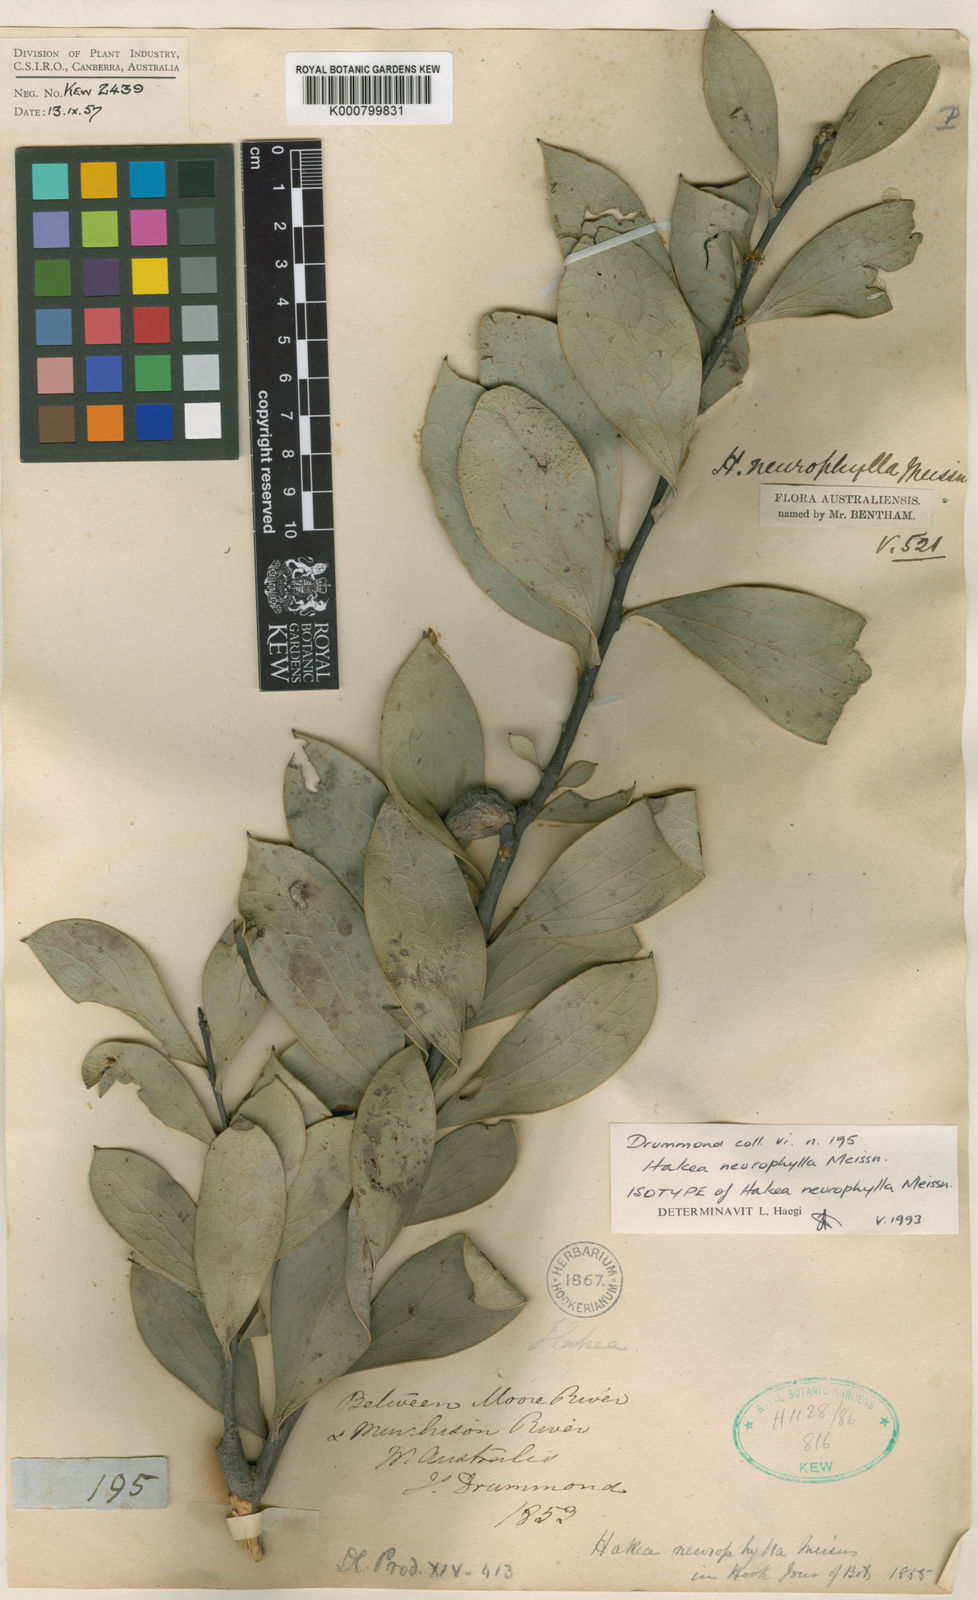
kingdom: Plantae
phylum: Tracheophyta
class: Magnoliopsida
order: Proteales
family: Proteaceae
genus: Hakea
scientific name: Hakea neurophylla
